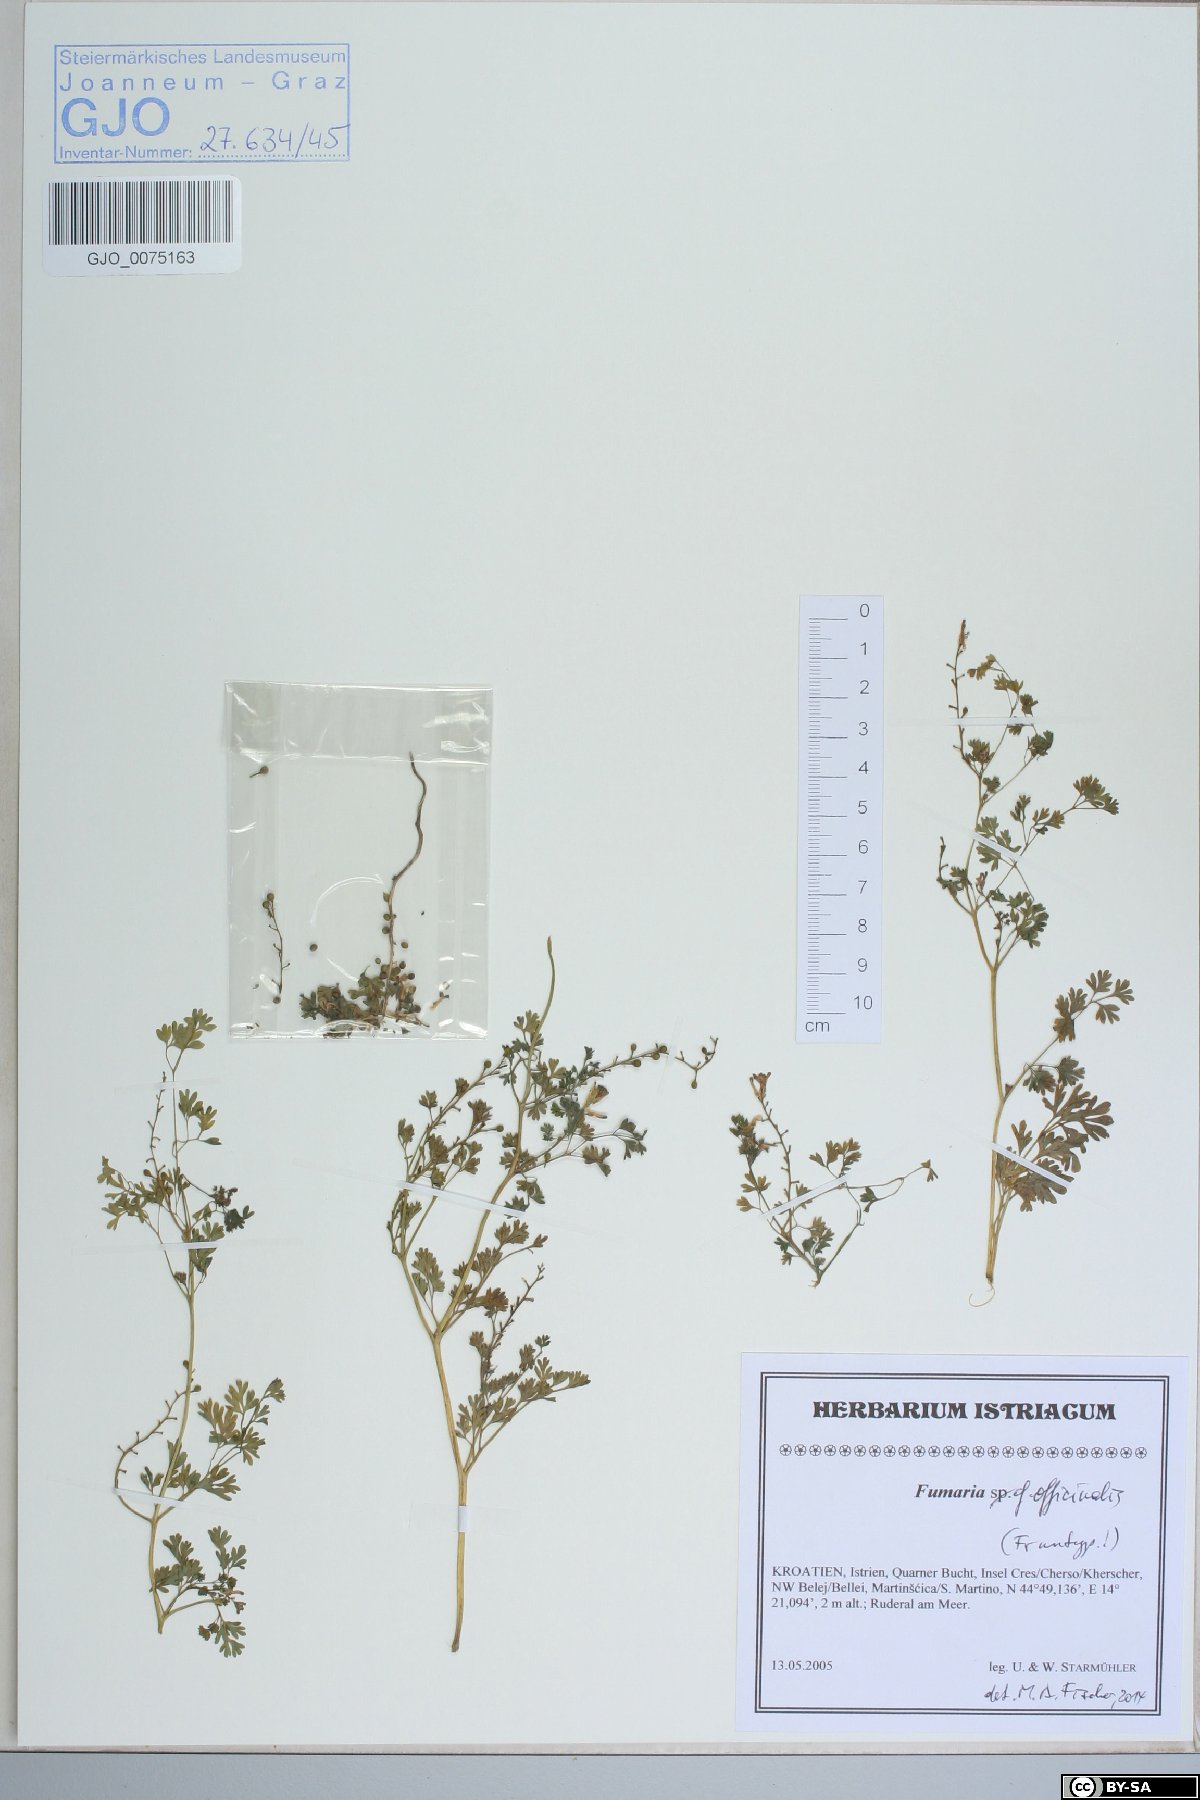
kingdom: Plantae
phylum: Tracheophyta
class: Magnoliopsida
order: Ranunculales
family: Papaveraceae
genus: Fumaria
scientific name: Fumaria officinalis
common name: Common fumitory
